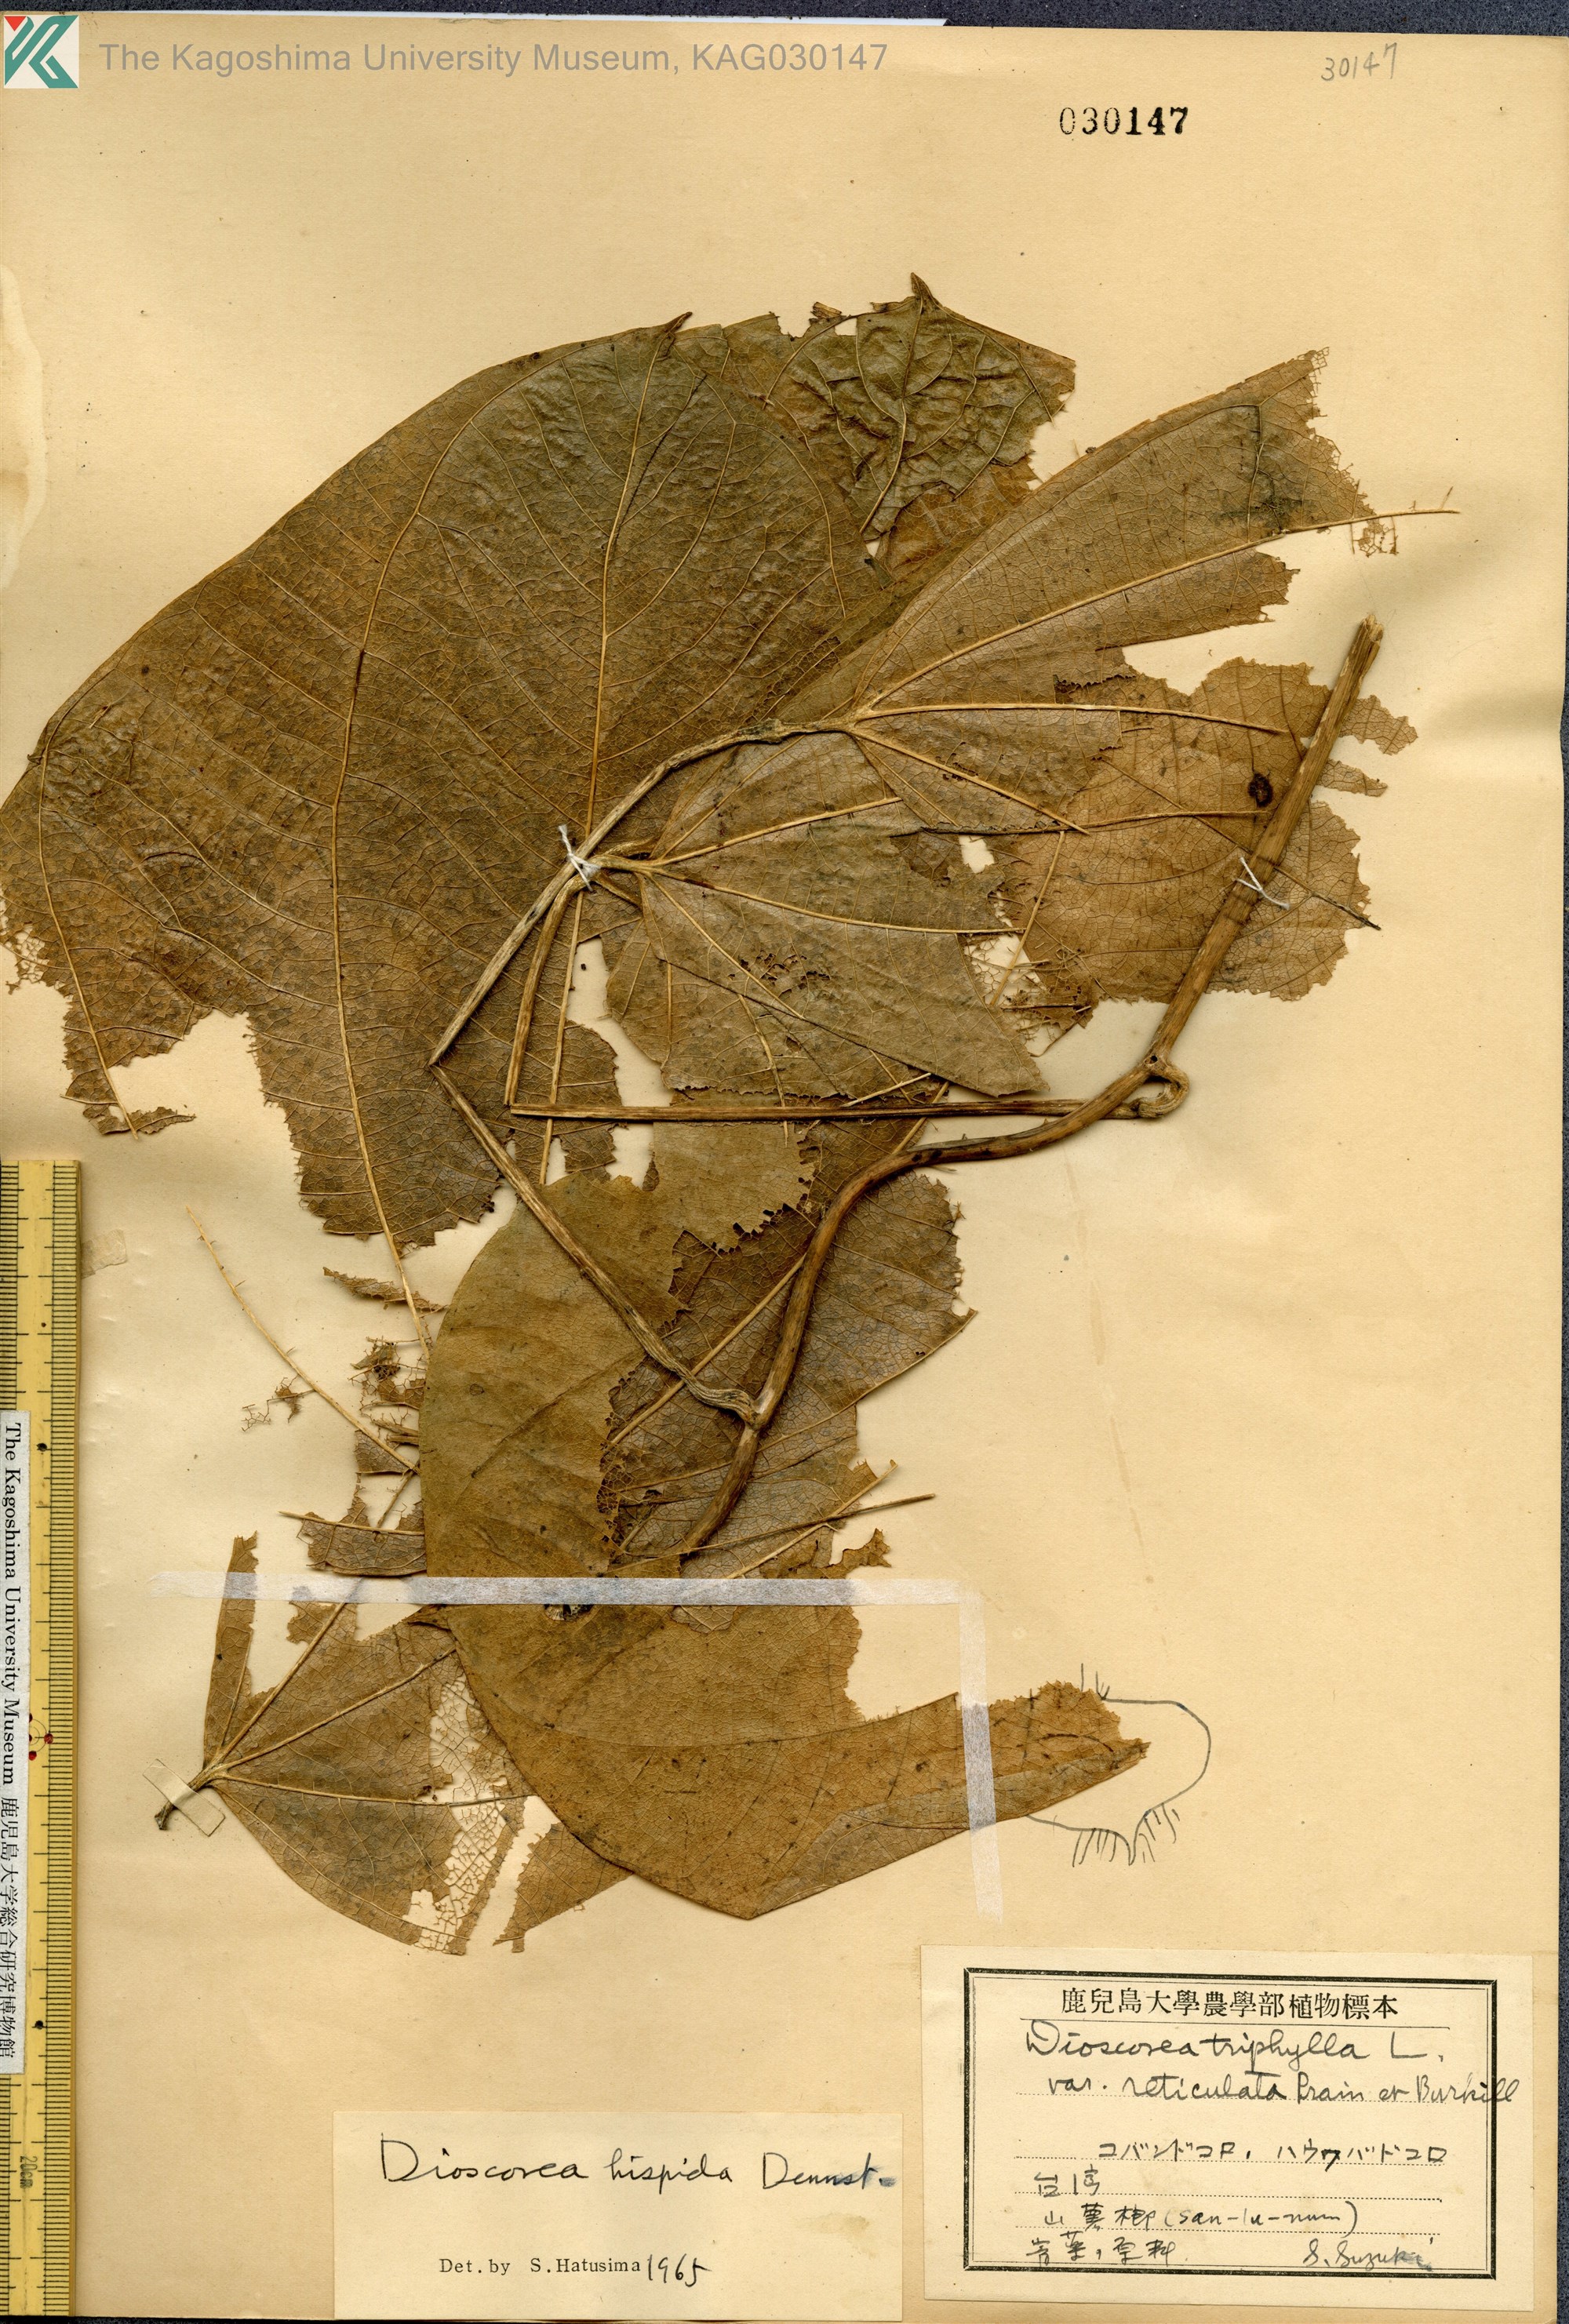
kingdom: Plantae
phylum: Tracheophyta
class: Liliopsida
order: Dioscoreales
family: Dioscoreaceae
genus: Dioscorea
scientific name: Dioscorea triphylla
